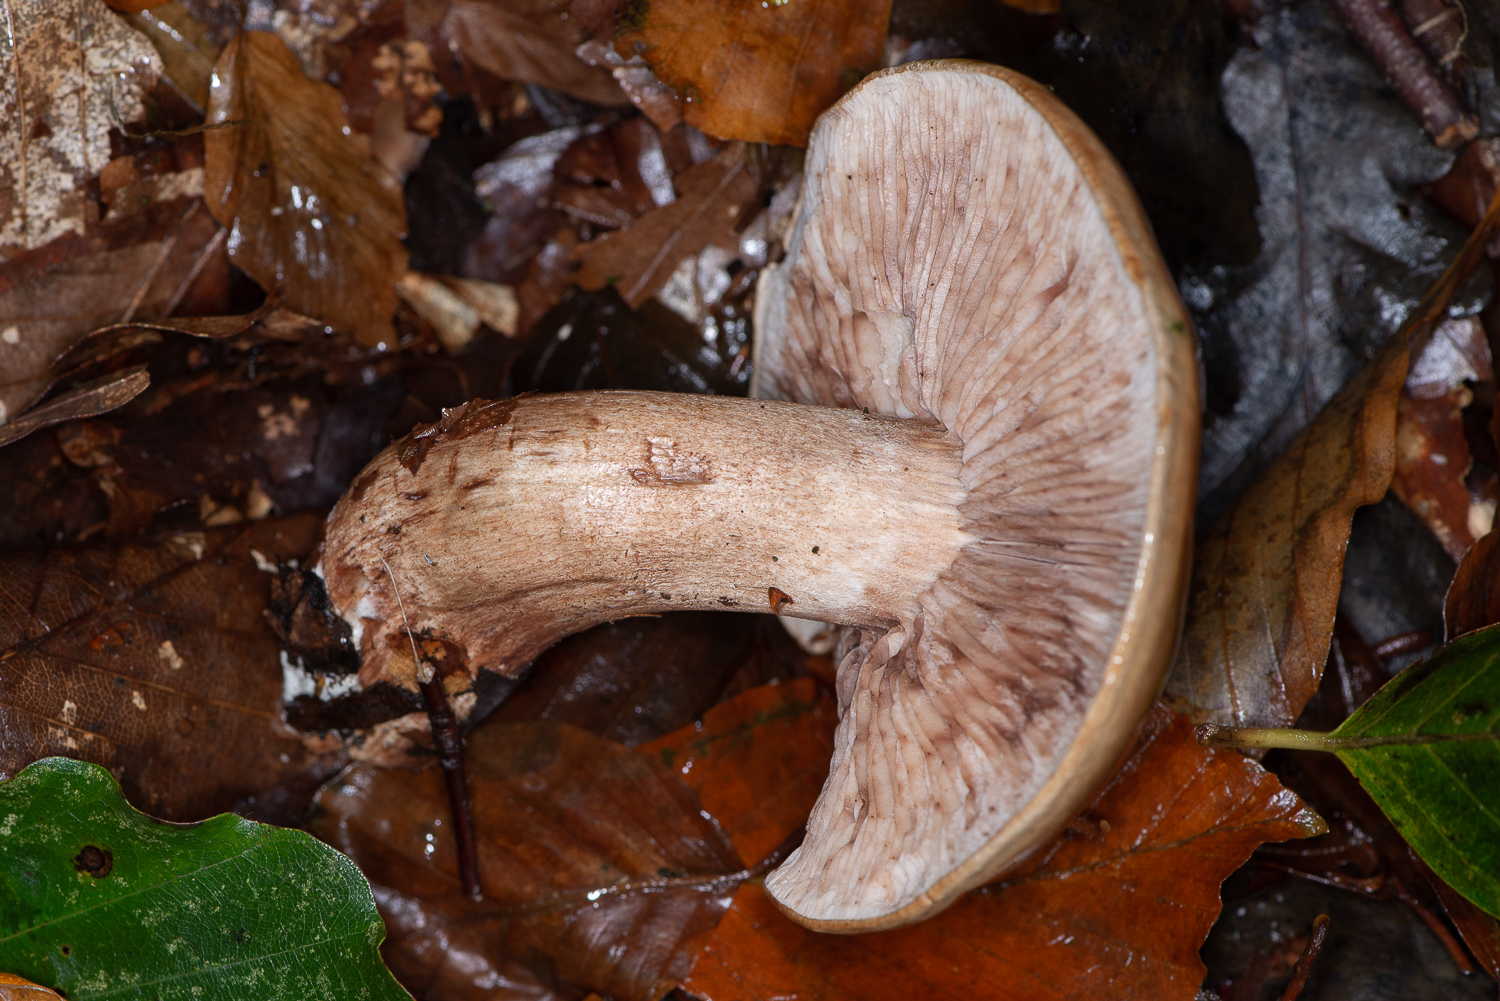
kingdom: Fungi
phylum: Basidiomycota
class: Agaricomycetes
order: Agaricales
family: Tricholomataceae
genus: Tricholoma
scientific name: Tricholoma ustale
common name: sveden ridderhat
